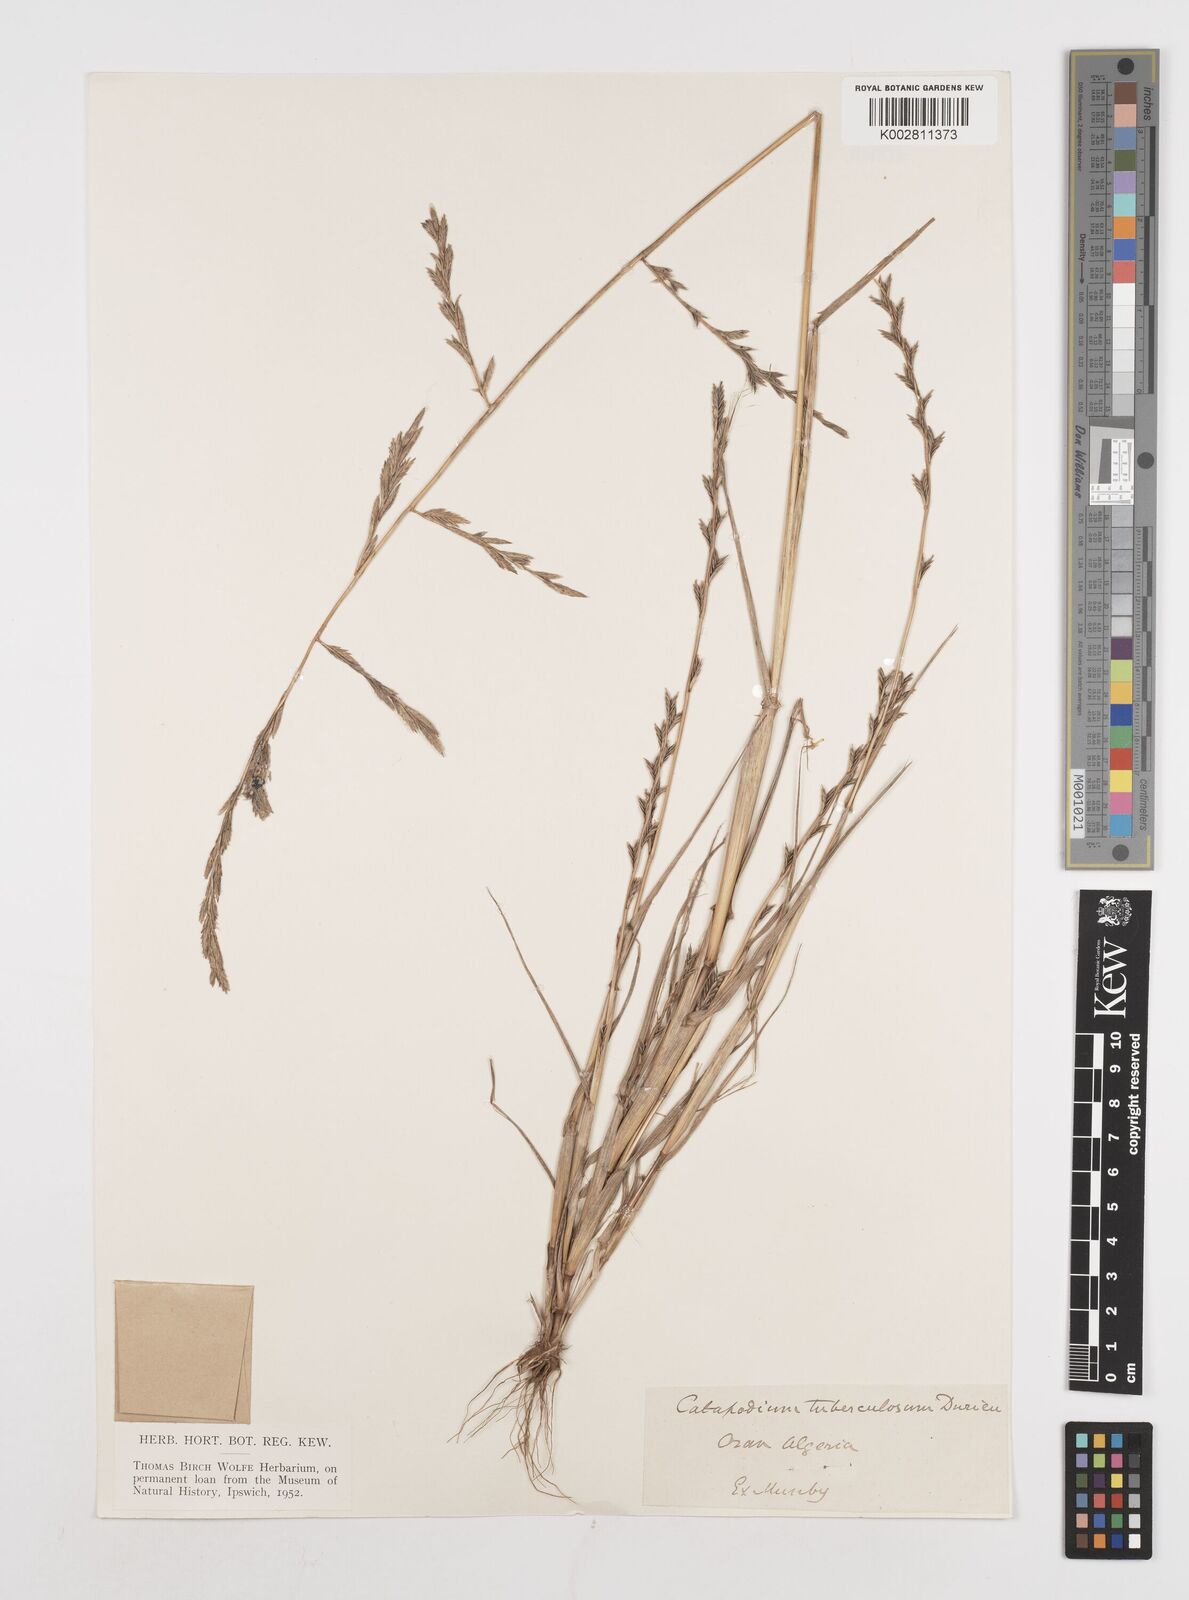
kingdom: Plantae
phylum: Tracheophyta
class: Liliopsida
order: Poales
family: Poaceae
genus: Castellia
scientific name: Castellia tuberculosa
